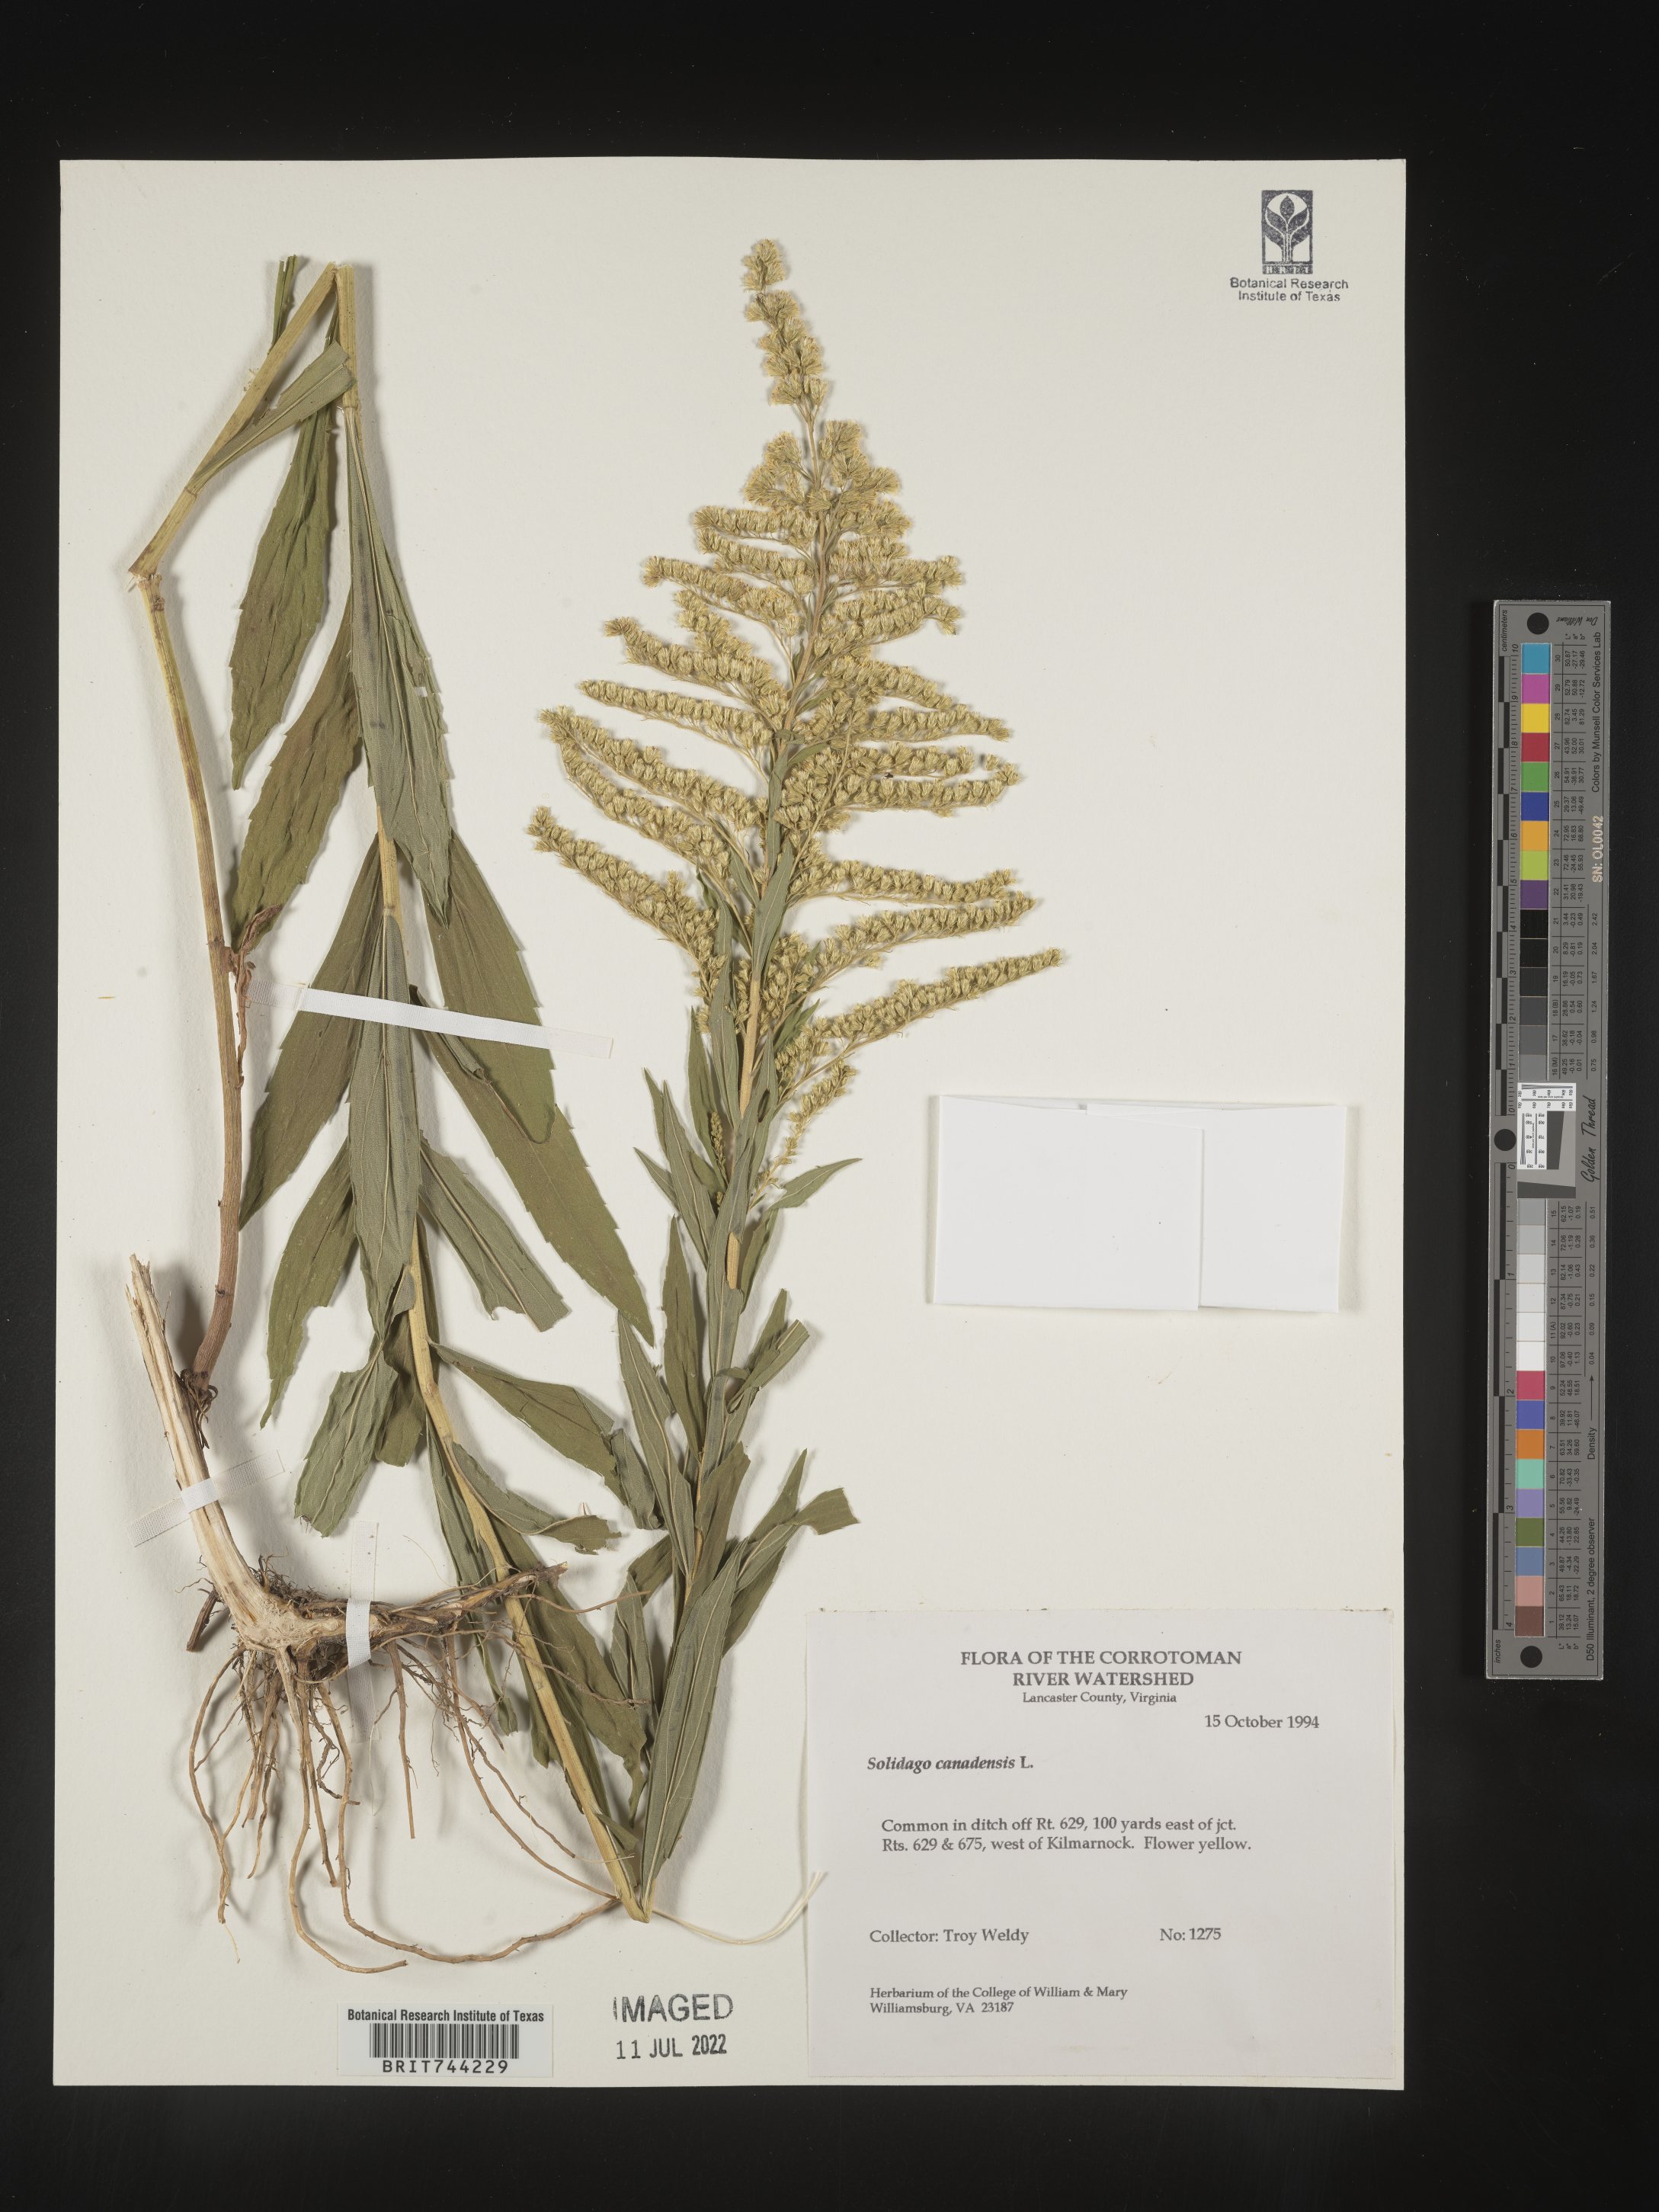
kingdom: Plantae
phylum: Tracheophyta
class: Magnoliopsida
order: Asterales
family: Asteraceae
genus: Solidago
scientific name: Solidago altissima
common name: Late goldenrod
